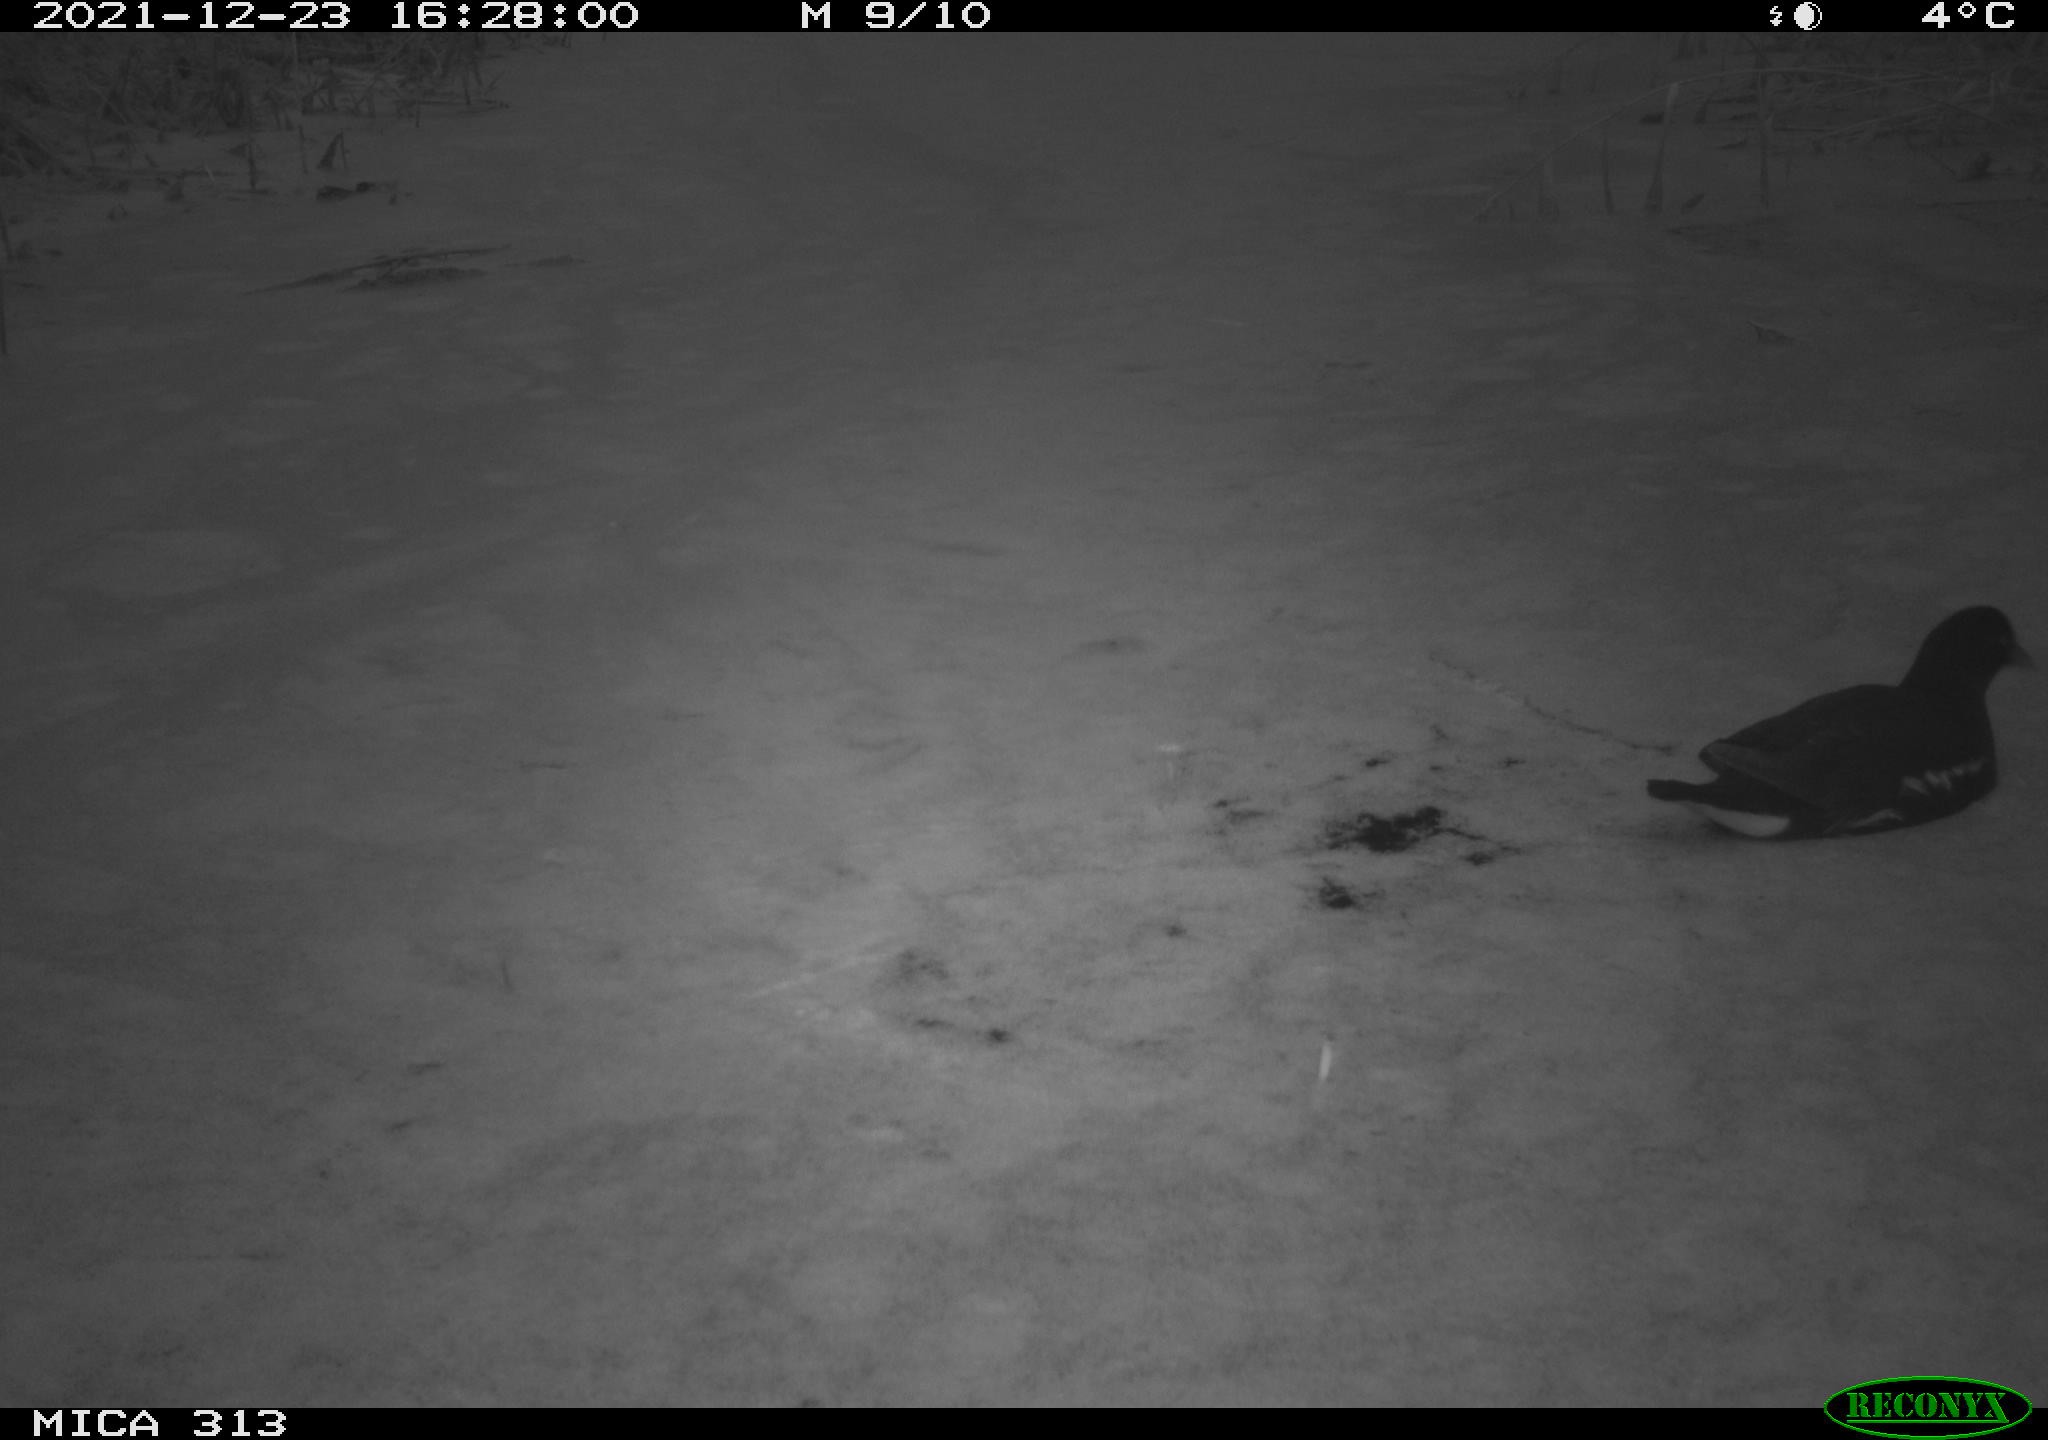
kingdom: Animalia
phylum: Chordata
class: Aves
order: Gruiformes
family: Rallidae
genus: Gallinula
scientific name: Gallinula chloropus
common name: Common moorhen
